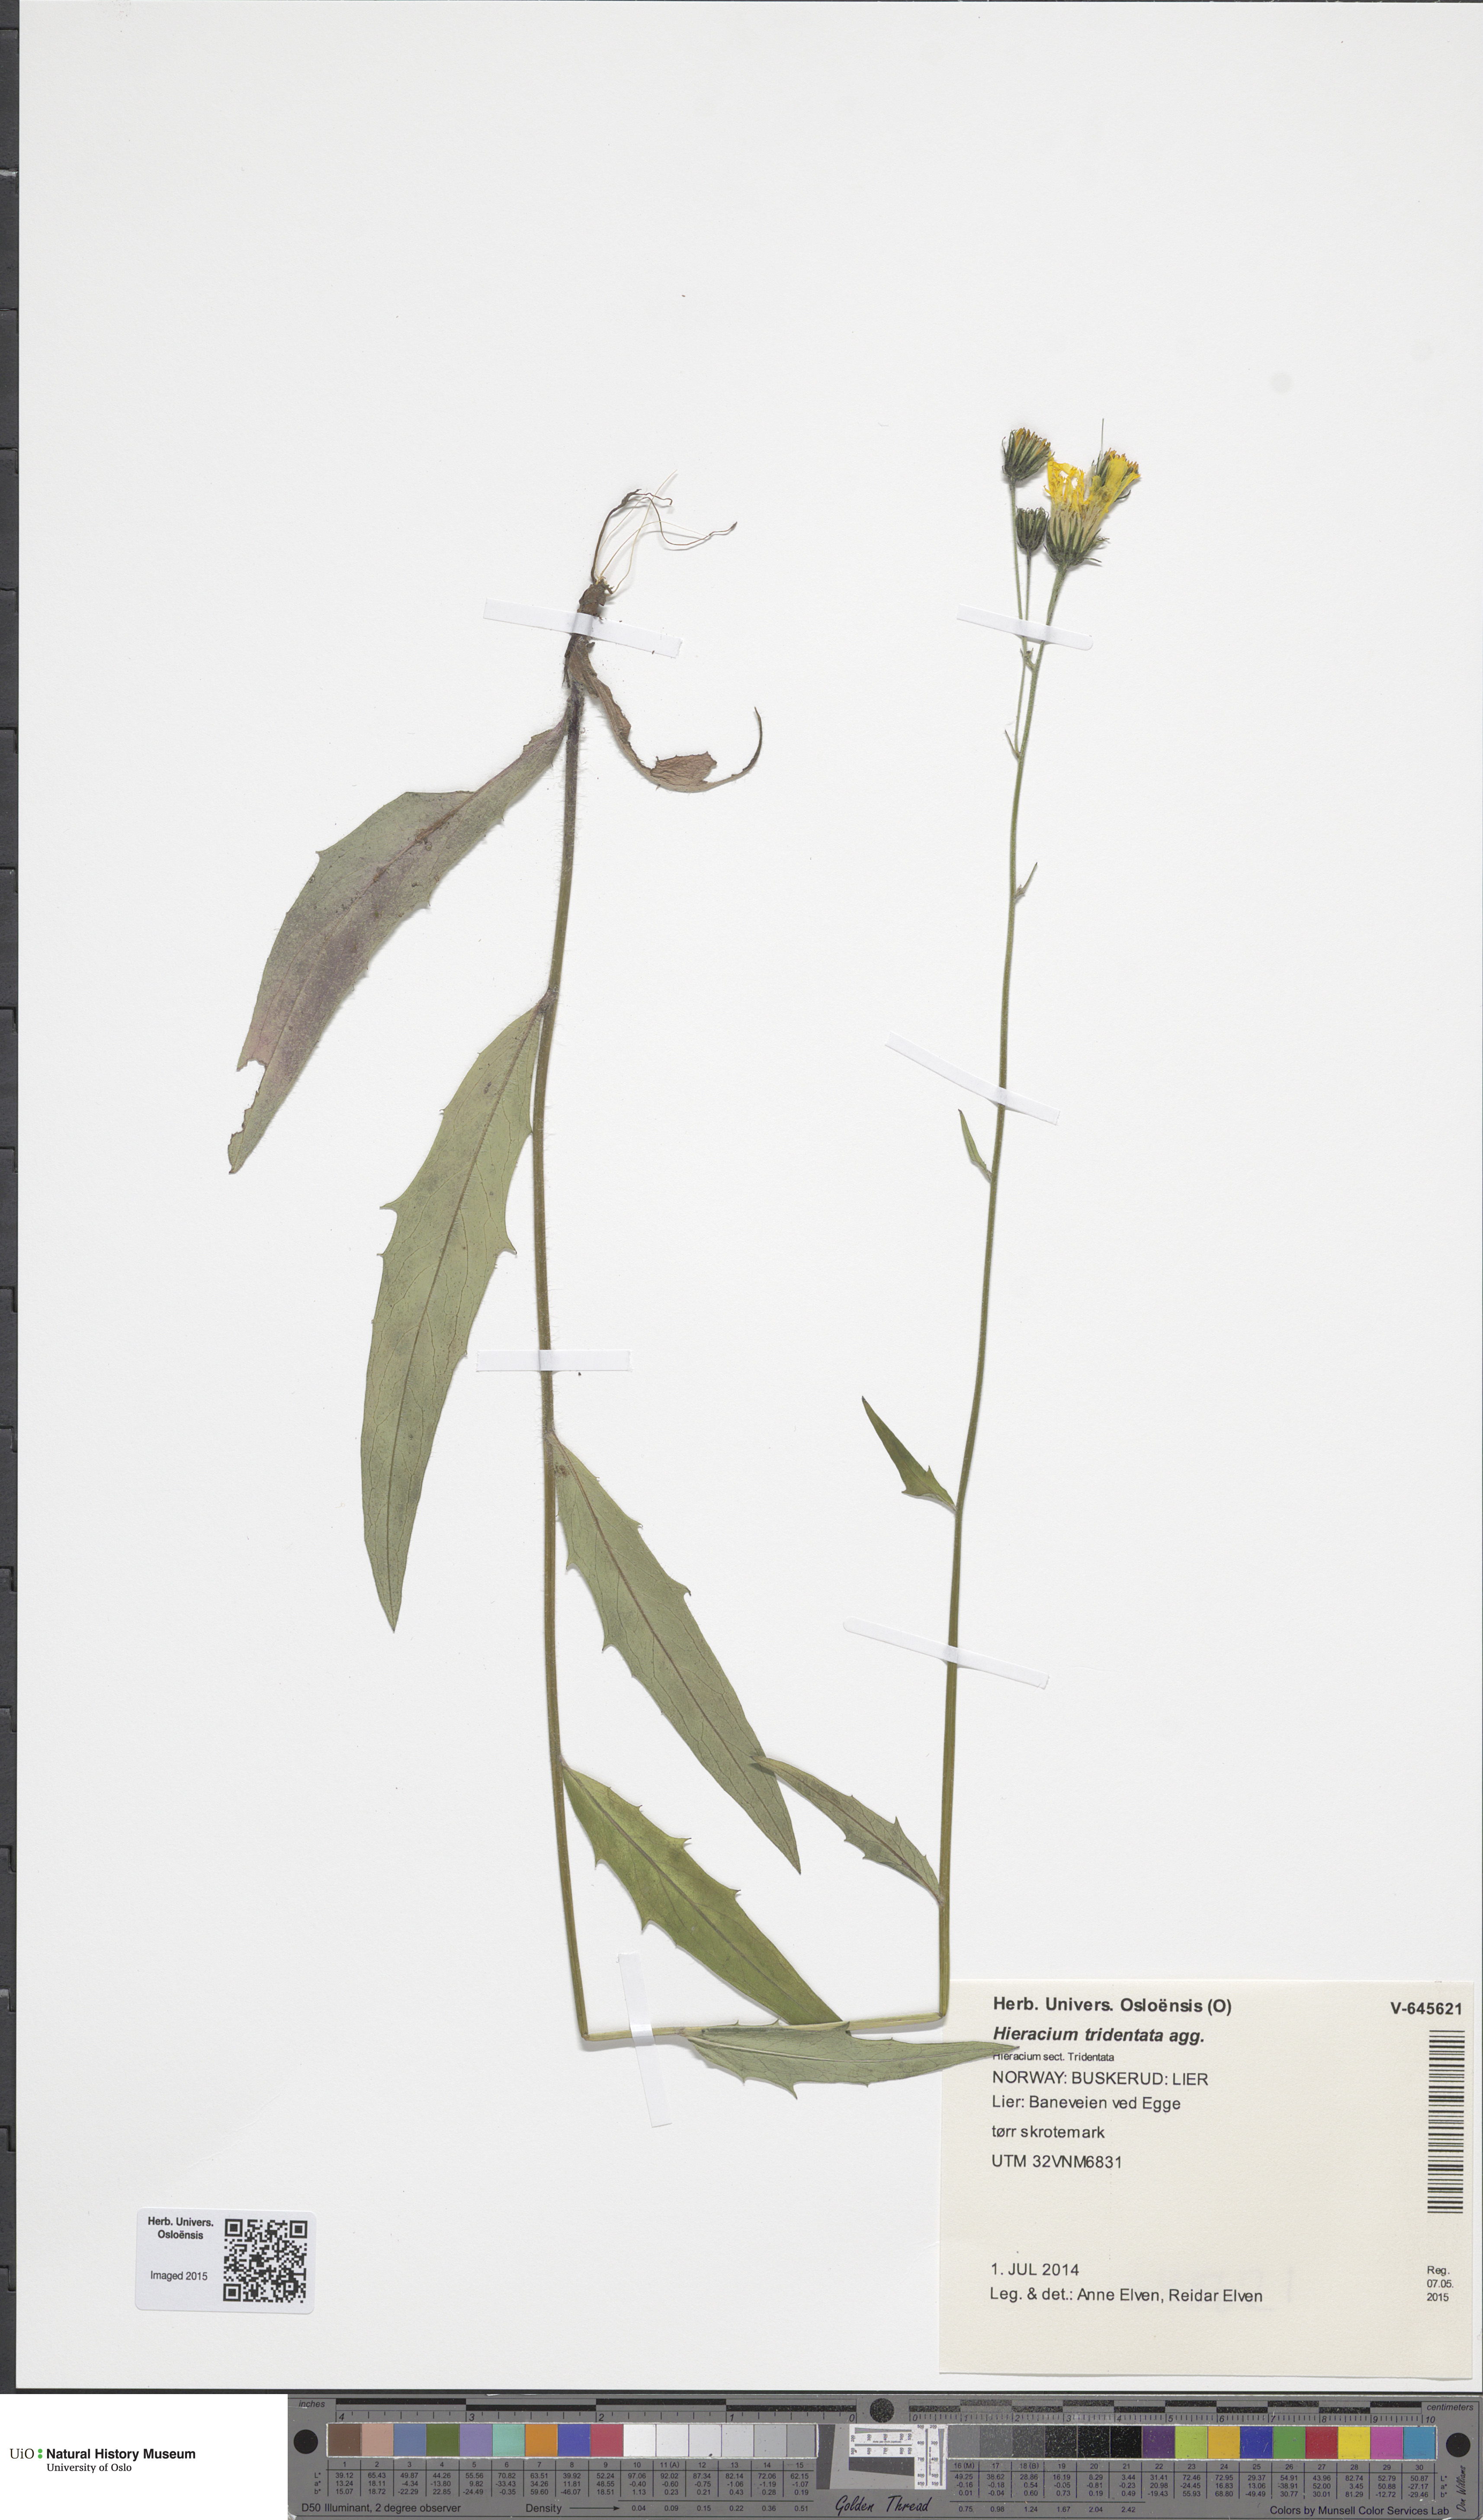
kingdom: Plantae
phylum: Tracheophyta
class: Magnoliopsida
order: Asterales
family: Asteraceae
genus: Hieracium
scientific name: Hieracium tridentatum
